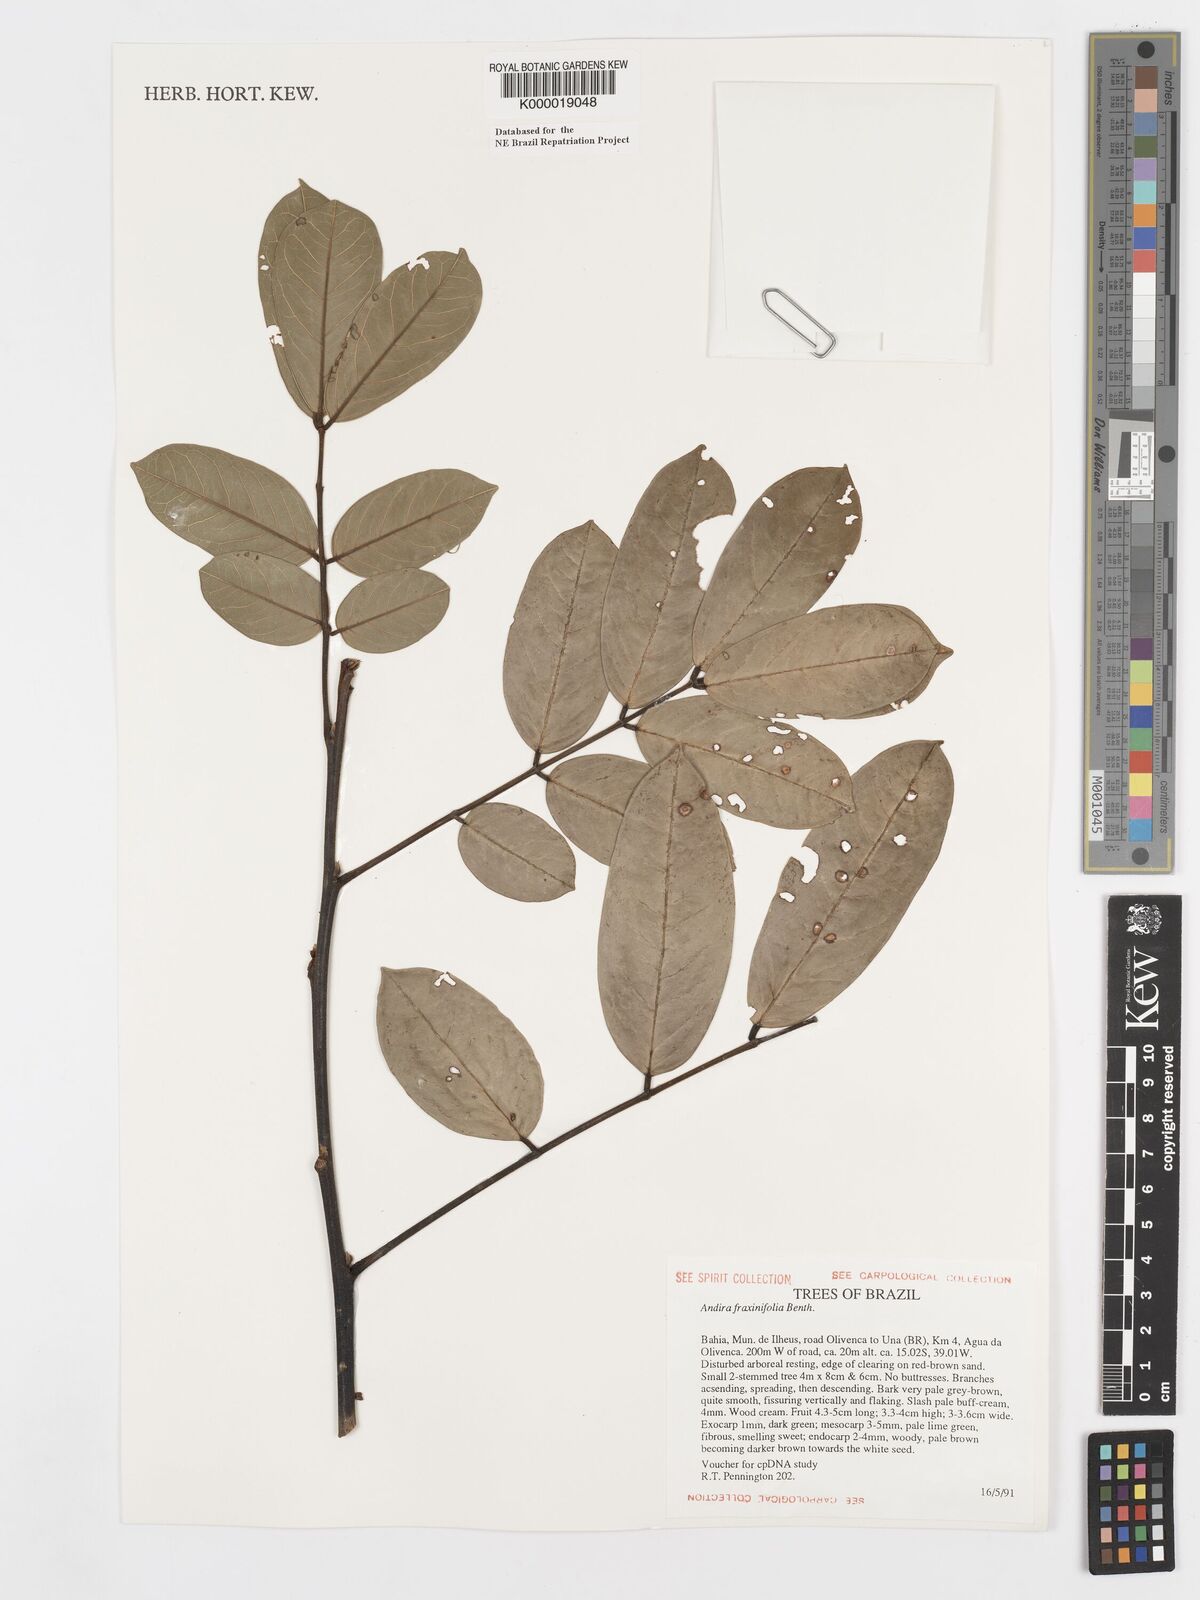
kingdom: Plantae
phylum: Tracheophyta
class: Magnoliopsida
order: Fabales
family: Fabaceae
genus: Andira
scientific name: Andira fraxinifolia
